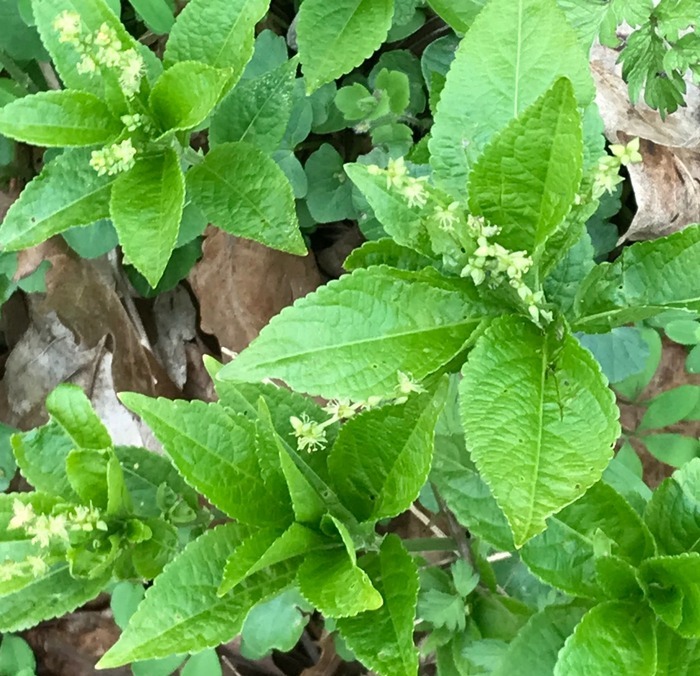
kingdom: Plantae
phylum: Tracheophyta
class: Magnoliopsida
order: Malpighiales
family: Euphorbiaceae
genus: Mercurialis
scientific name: Mercurialis perennis
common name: Almindelig bingelurt
